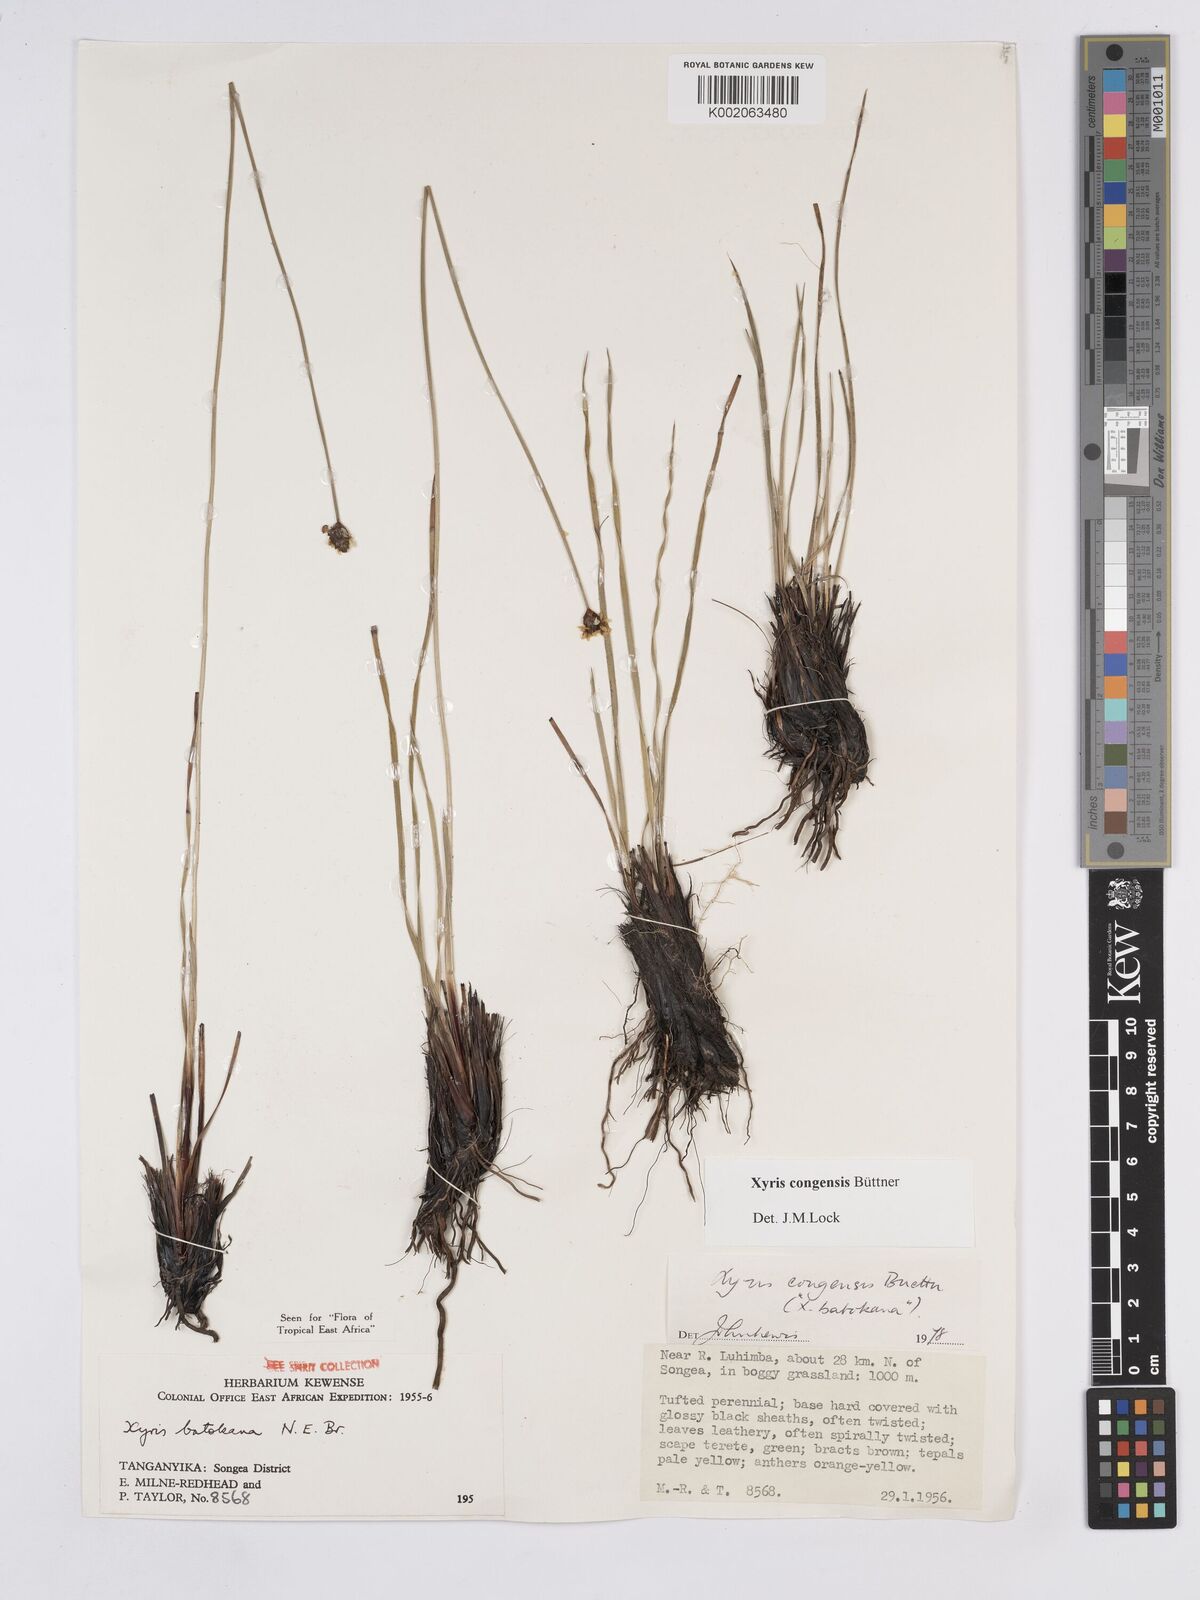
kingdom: Plantae
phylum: Tracheophyta
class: Liliopsida
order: Poales
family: Xyridaceae
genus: Xyris
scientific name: Xyris congensis
